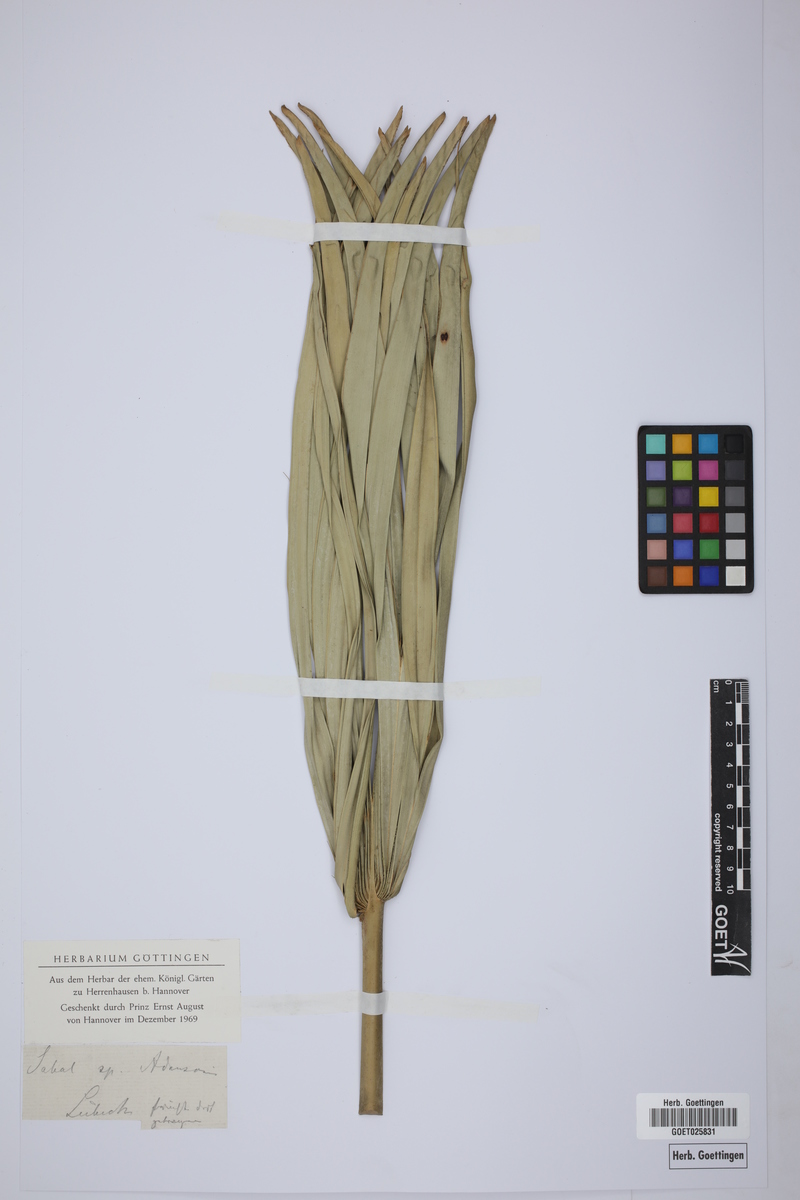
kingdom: Plantae
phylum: Tracheophyta
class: Liliopsida
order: Arecales
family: Arecaceae
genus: Sabal
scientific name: Sabal
